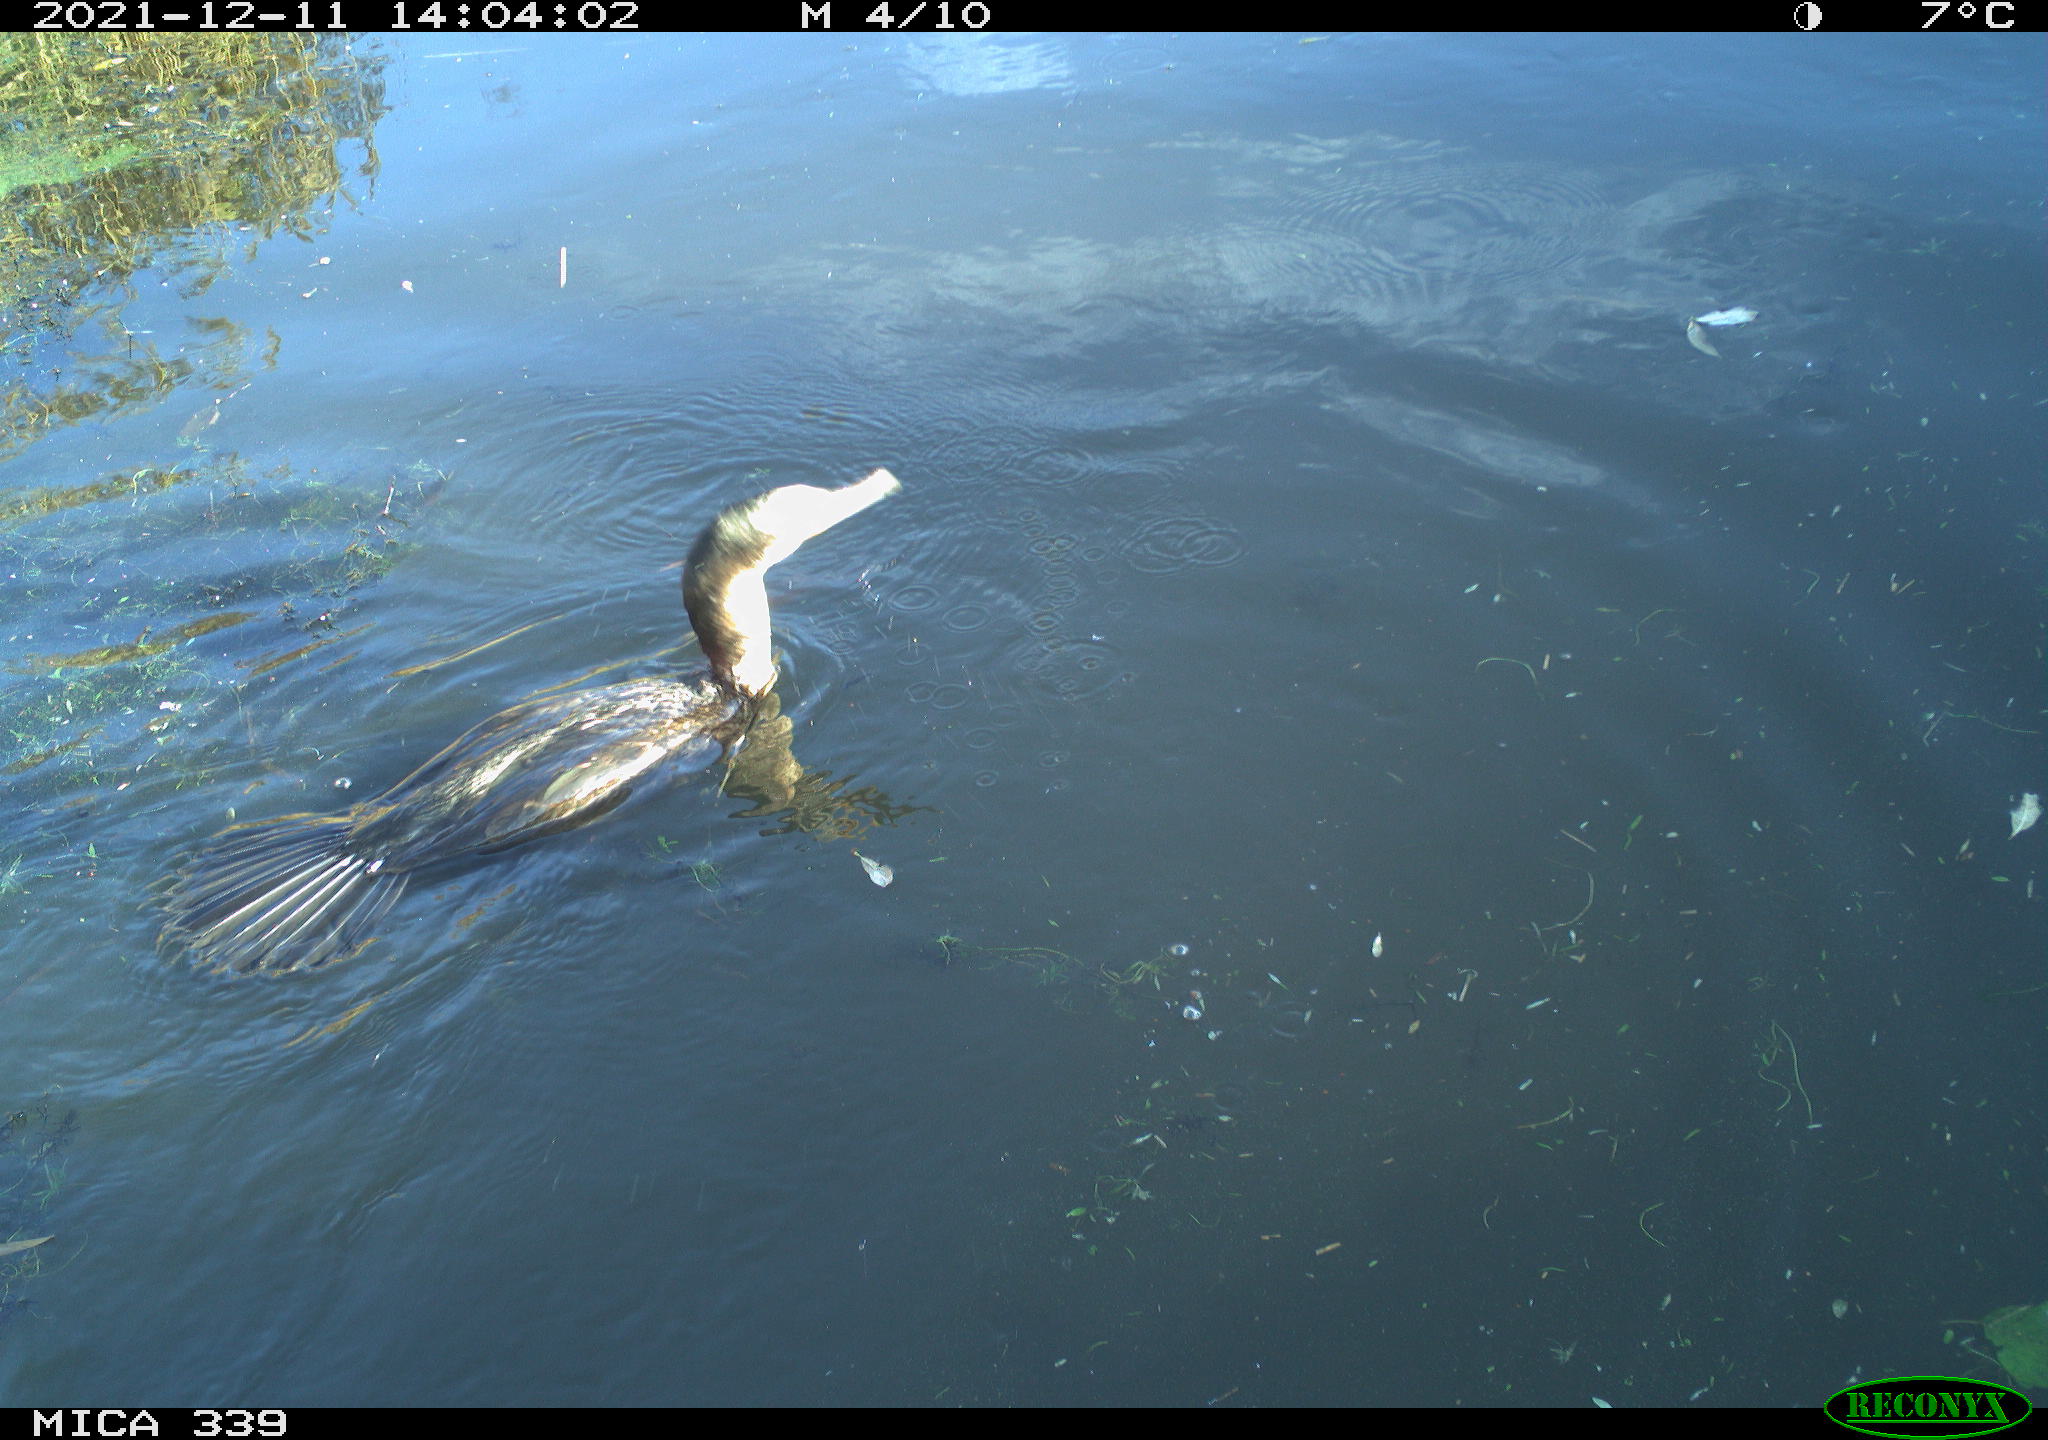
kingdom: Animalia
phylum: Chordata
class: Aves
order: Suliformes
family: Phalacrocoracidae
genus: Phalacrocorax
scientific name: Phalacrocorax carbo
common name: Great cormorant
